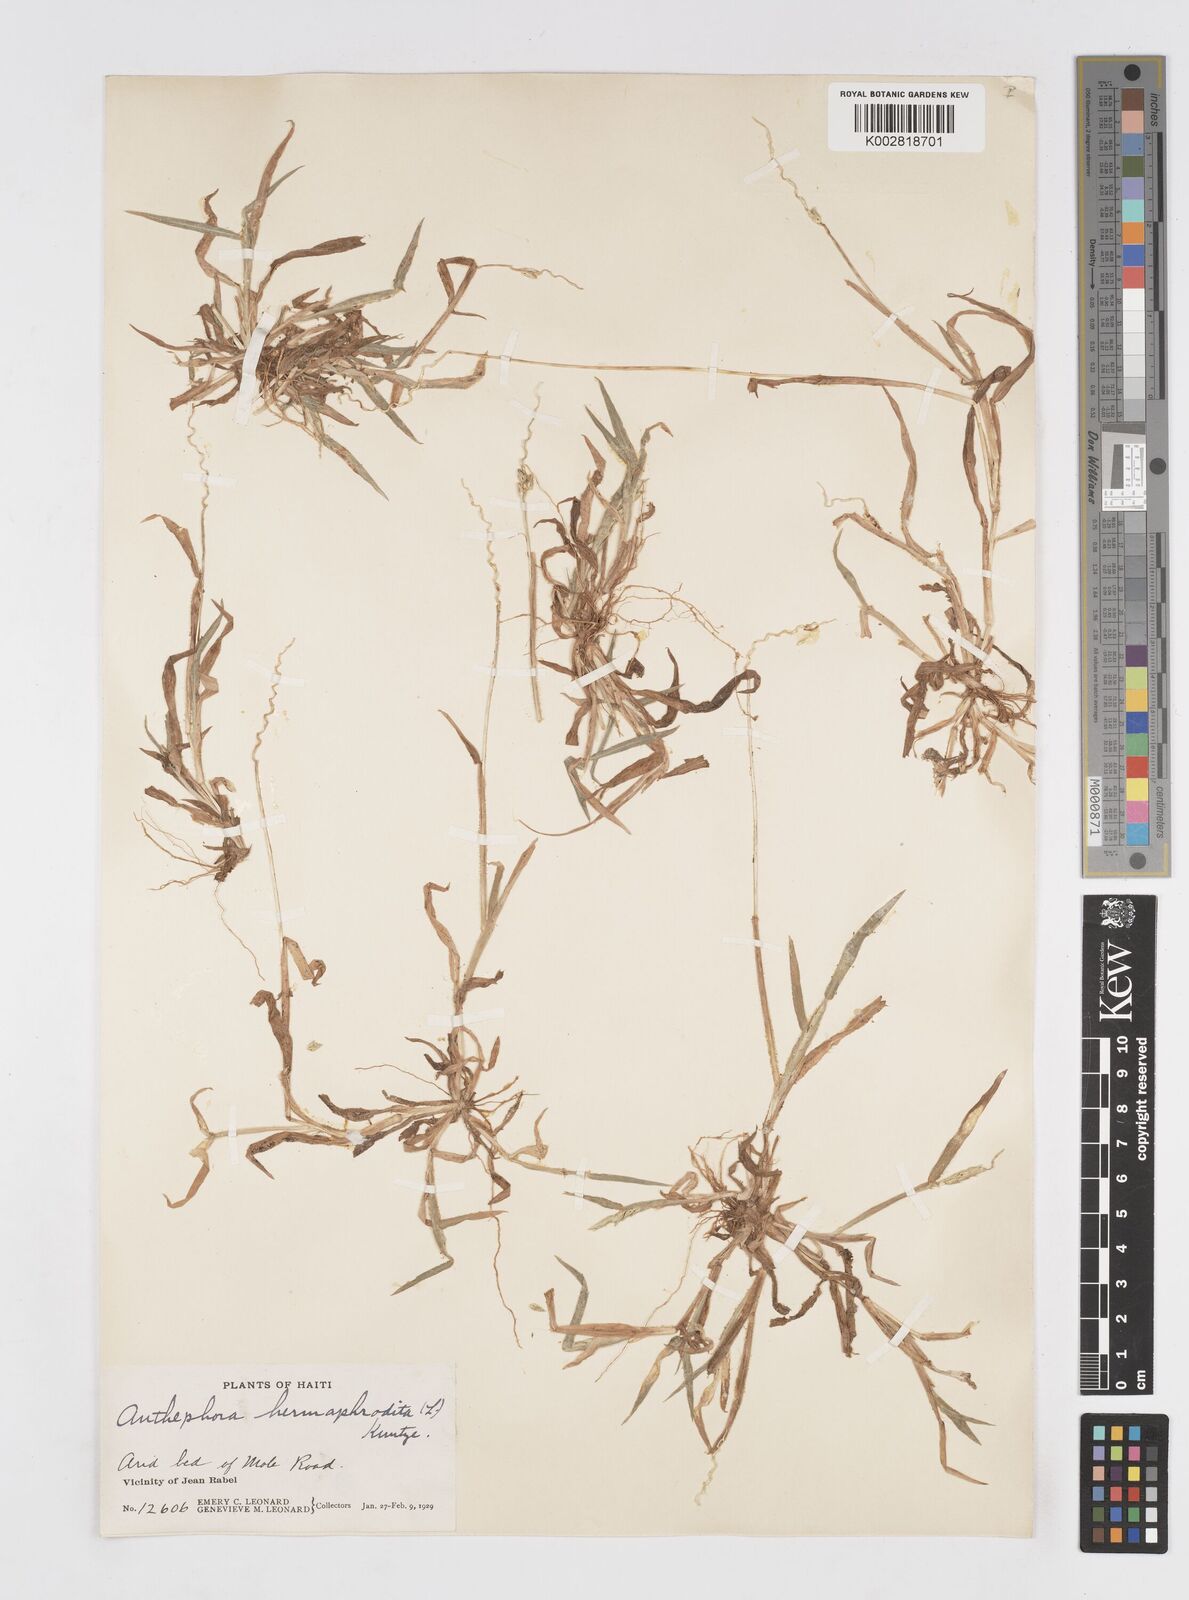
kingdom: Plantae
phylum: Tracheophyta
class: Liliopsida
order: Poales
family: Poaceae
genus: Anthephora
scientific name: Anthephora hermaphrodita
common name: Oldfield grass
